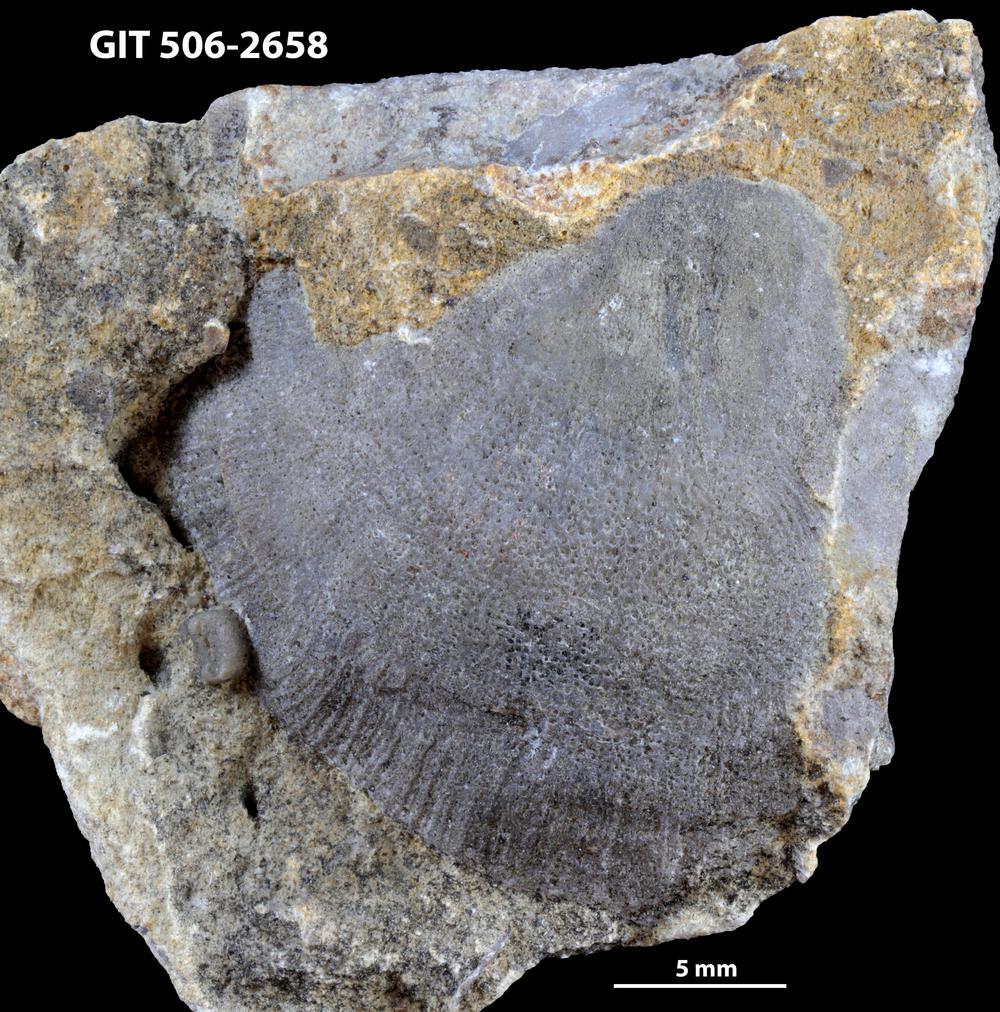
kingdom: Animalia
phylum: Brachiopoda
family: Stropheodontidae
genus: Strophodonta
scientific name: Strophodonta Brachyprion semiglobosa
